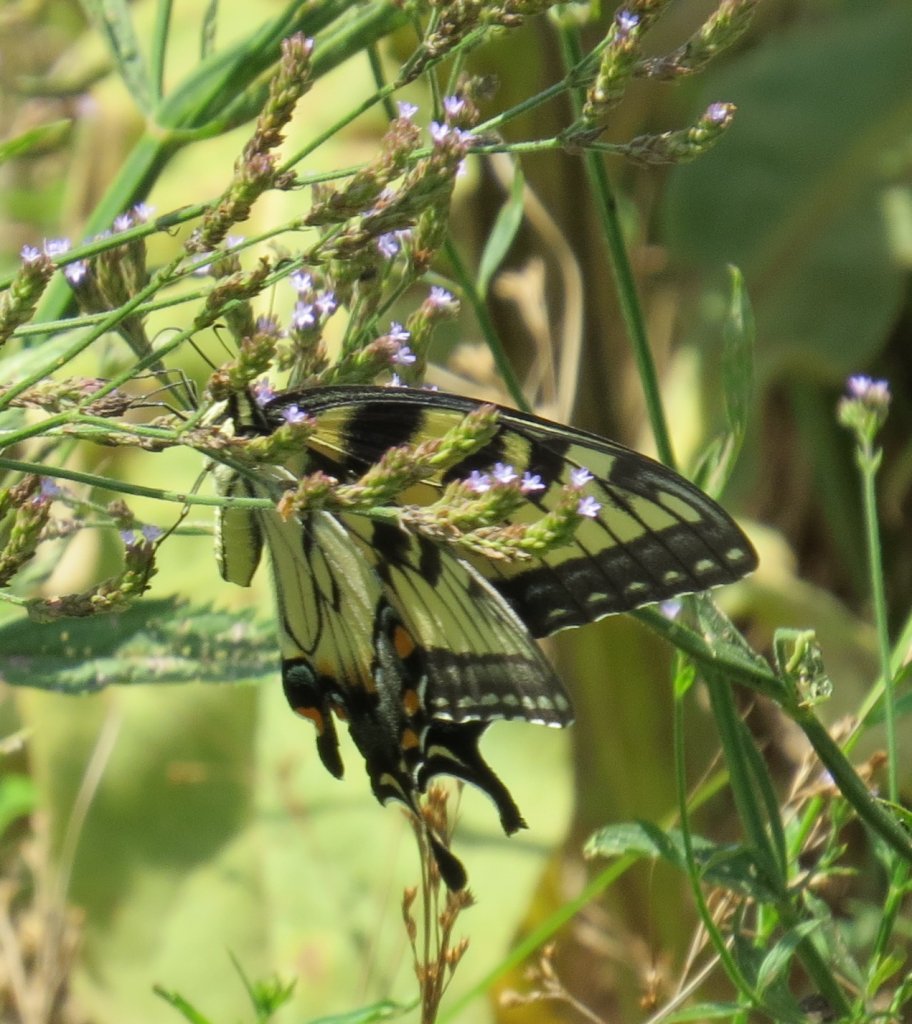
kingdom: Animalia
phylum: Arthropoda
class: Insecta
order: Lepidoptera
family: Papilionidae
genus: Pterourus
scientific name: Pterourus glaucus
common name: Eastern Tiger Swallowtail
